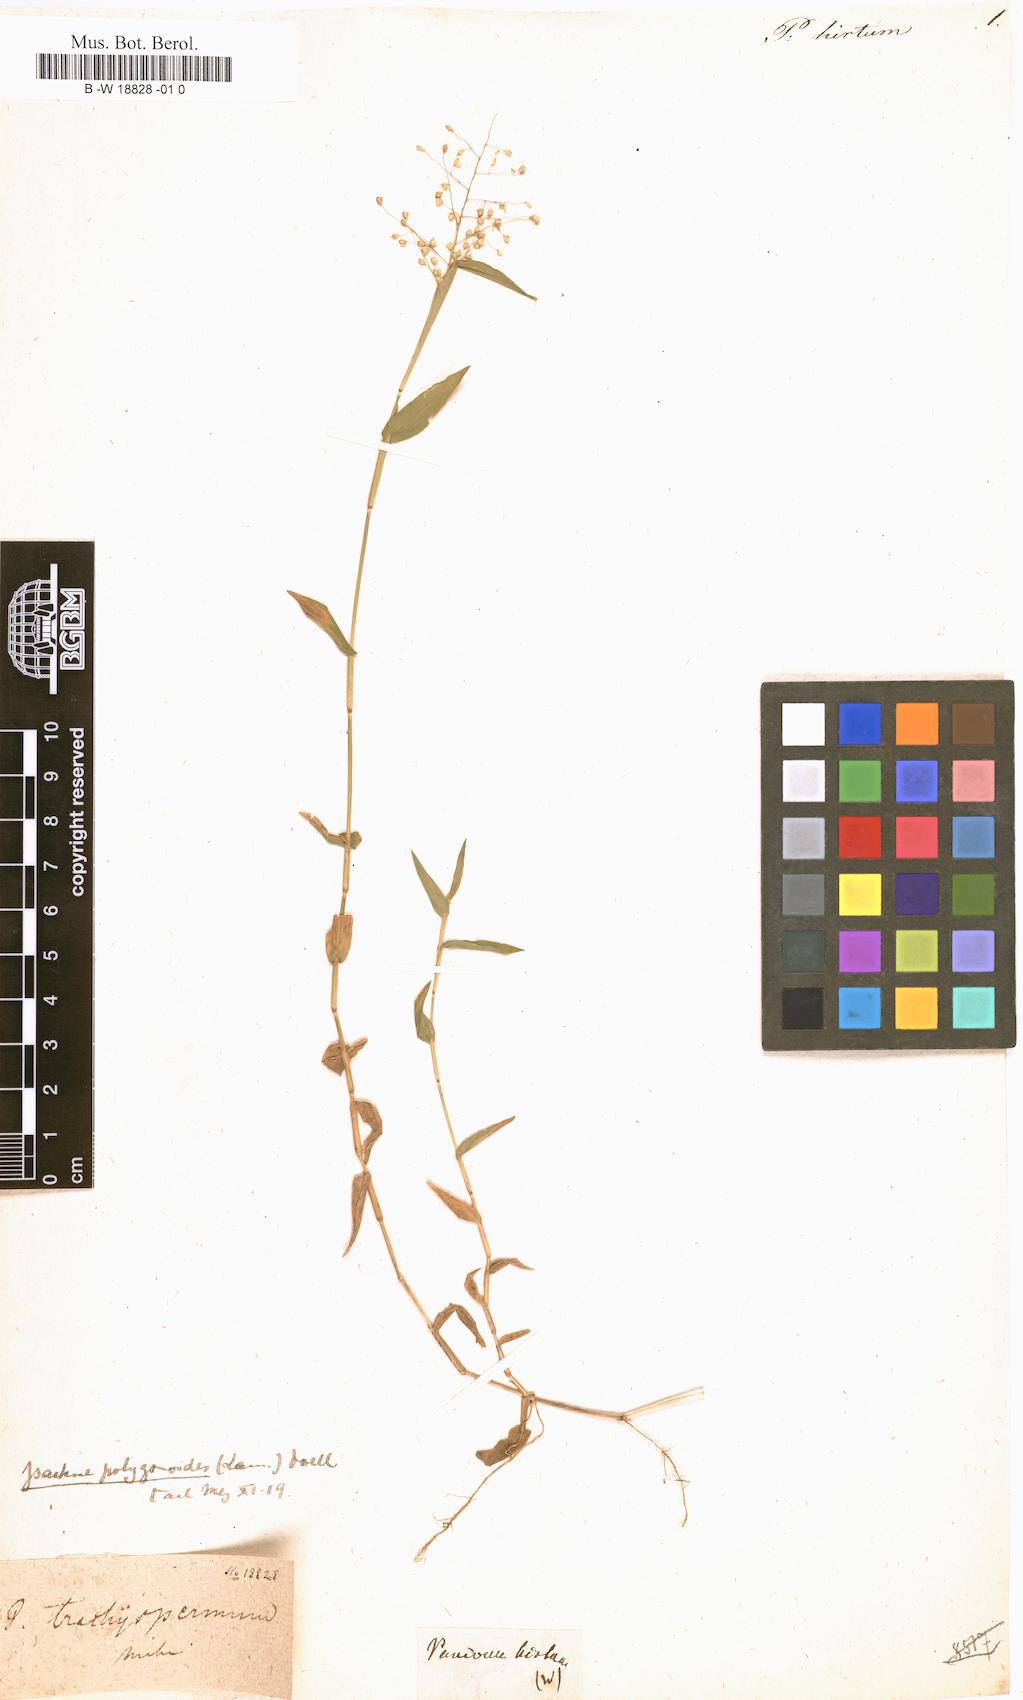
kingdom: Plantae
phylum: Tracheophyta
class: Liliopsida
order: Poales
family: Poaceae
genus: Panicum
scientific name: Panicum hirtum
